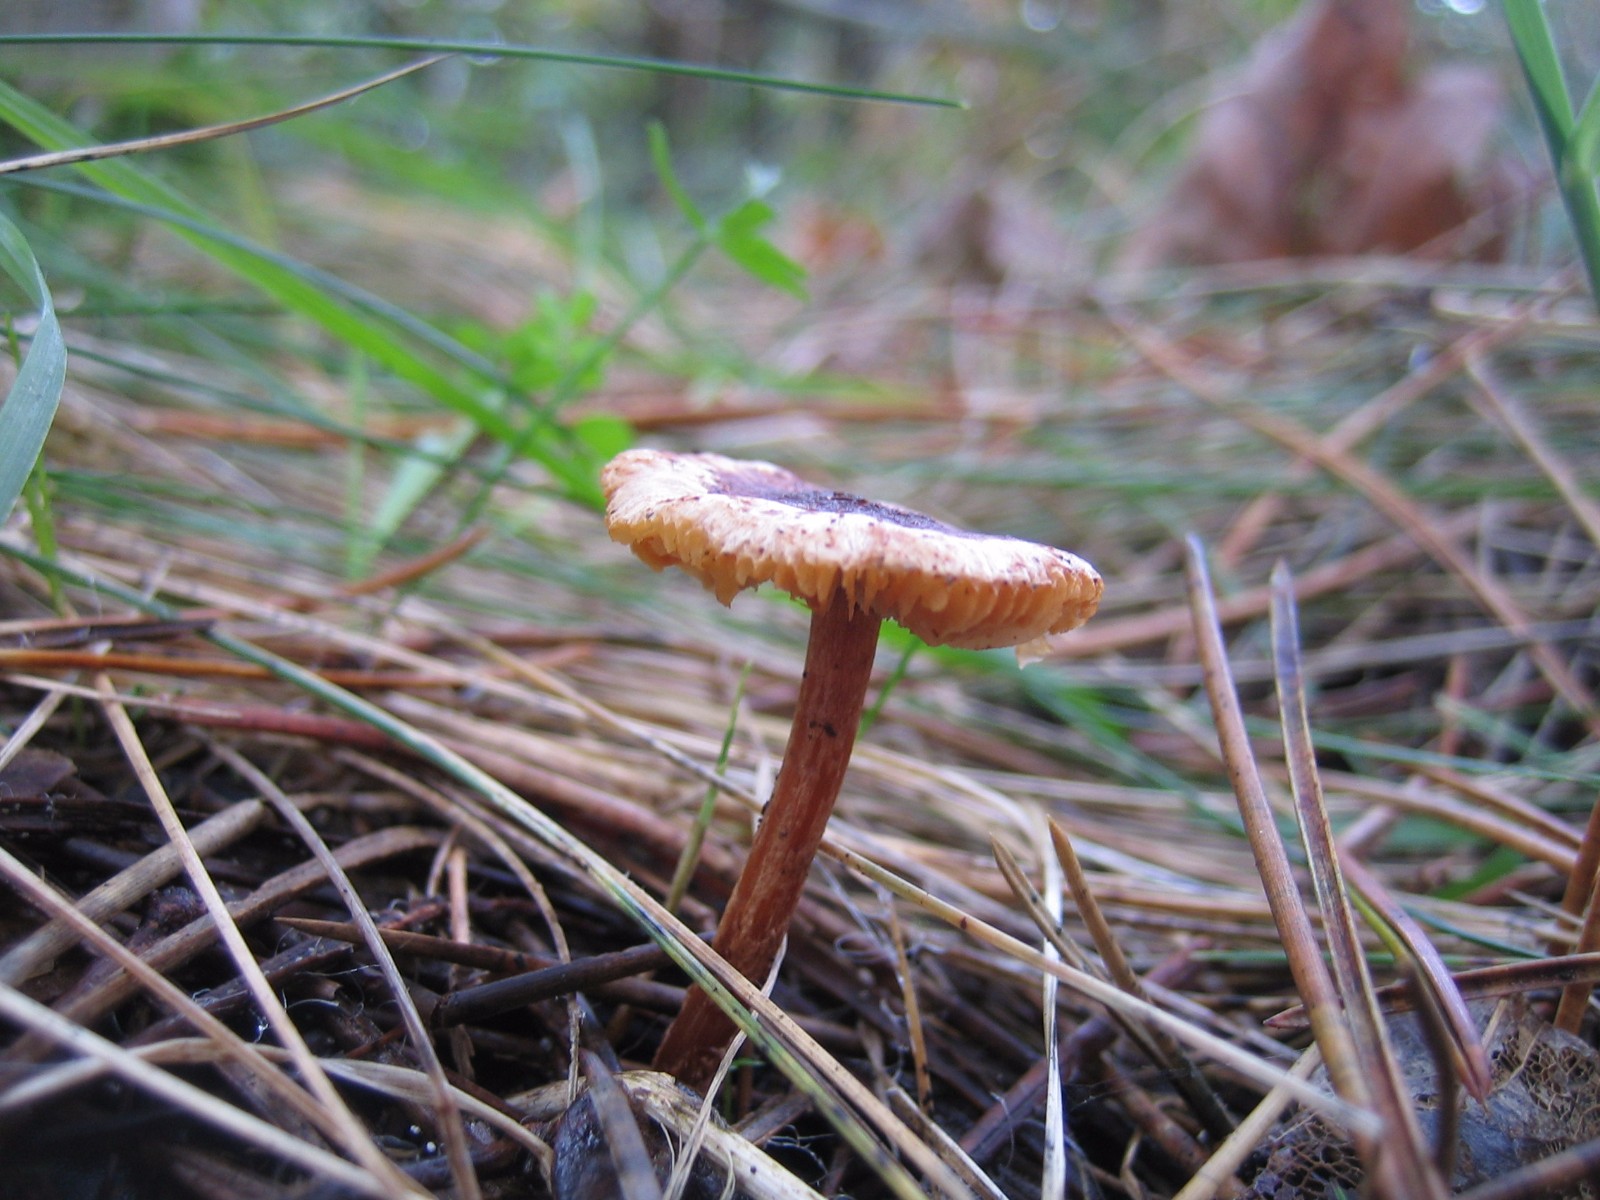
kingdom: Fungi
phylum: Basidiomycota
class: Agaricomycetes
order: Agaricales
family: Agaricaceae
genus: Lepiota
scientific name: Lepiota castanea
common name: kastaniebrun parasolhat
